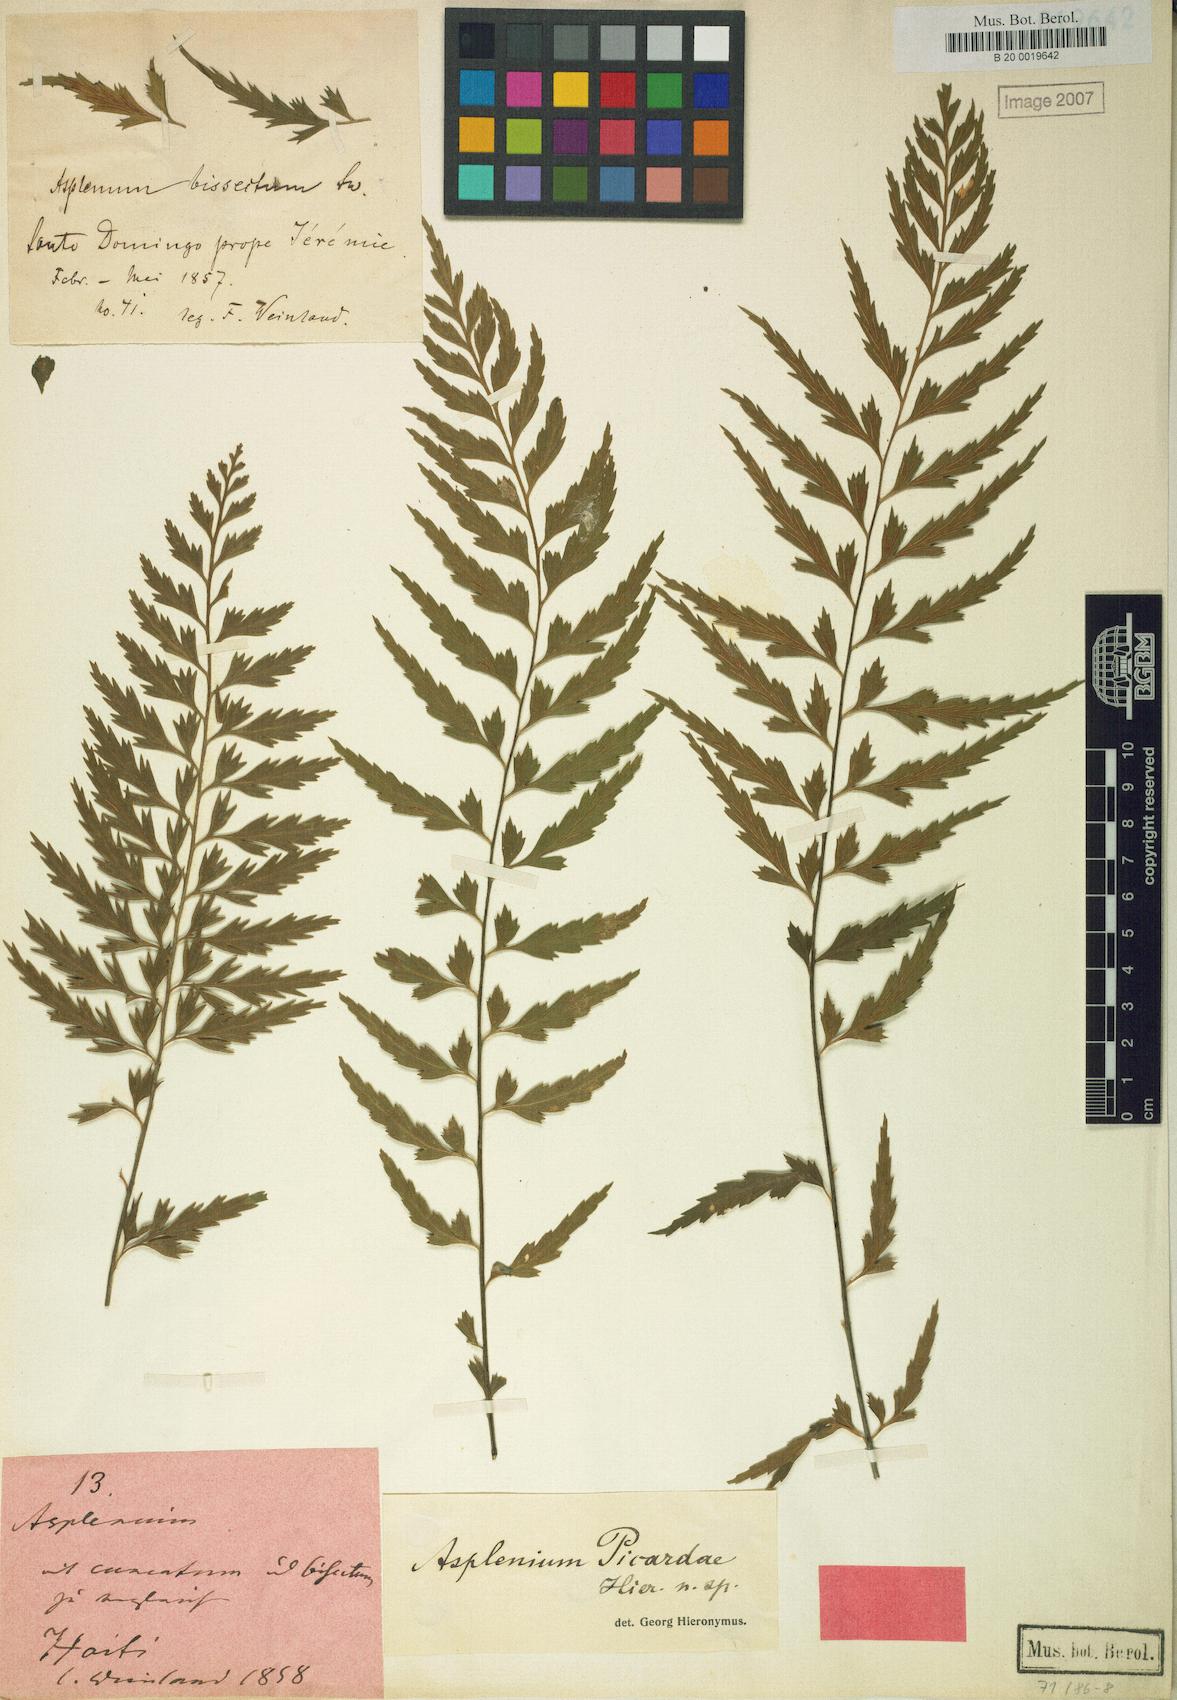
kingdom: Plantae
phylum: Tracheophyta
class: Polypodiopsida
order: Polypodiales
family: Aspleniaceae
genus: Asplenium
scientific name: Asplenium picardae
